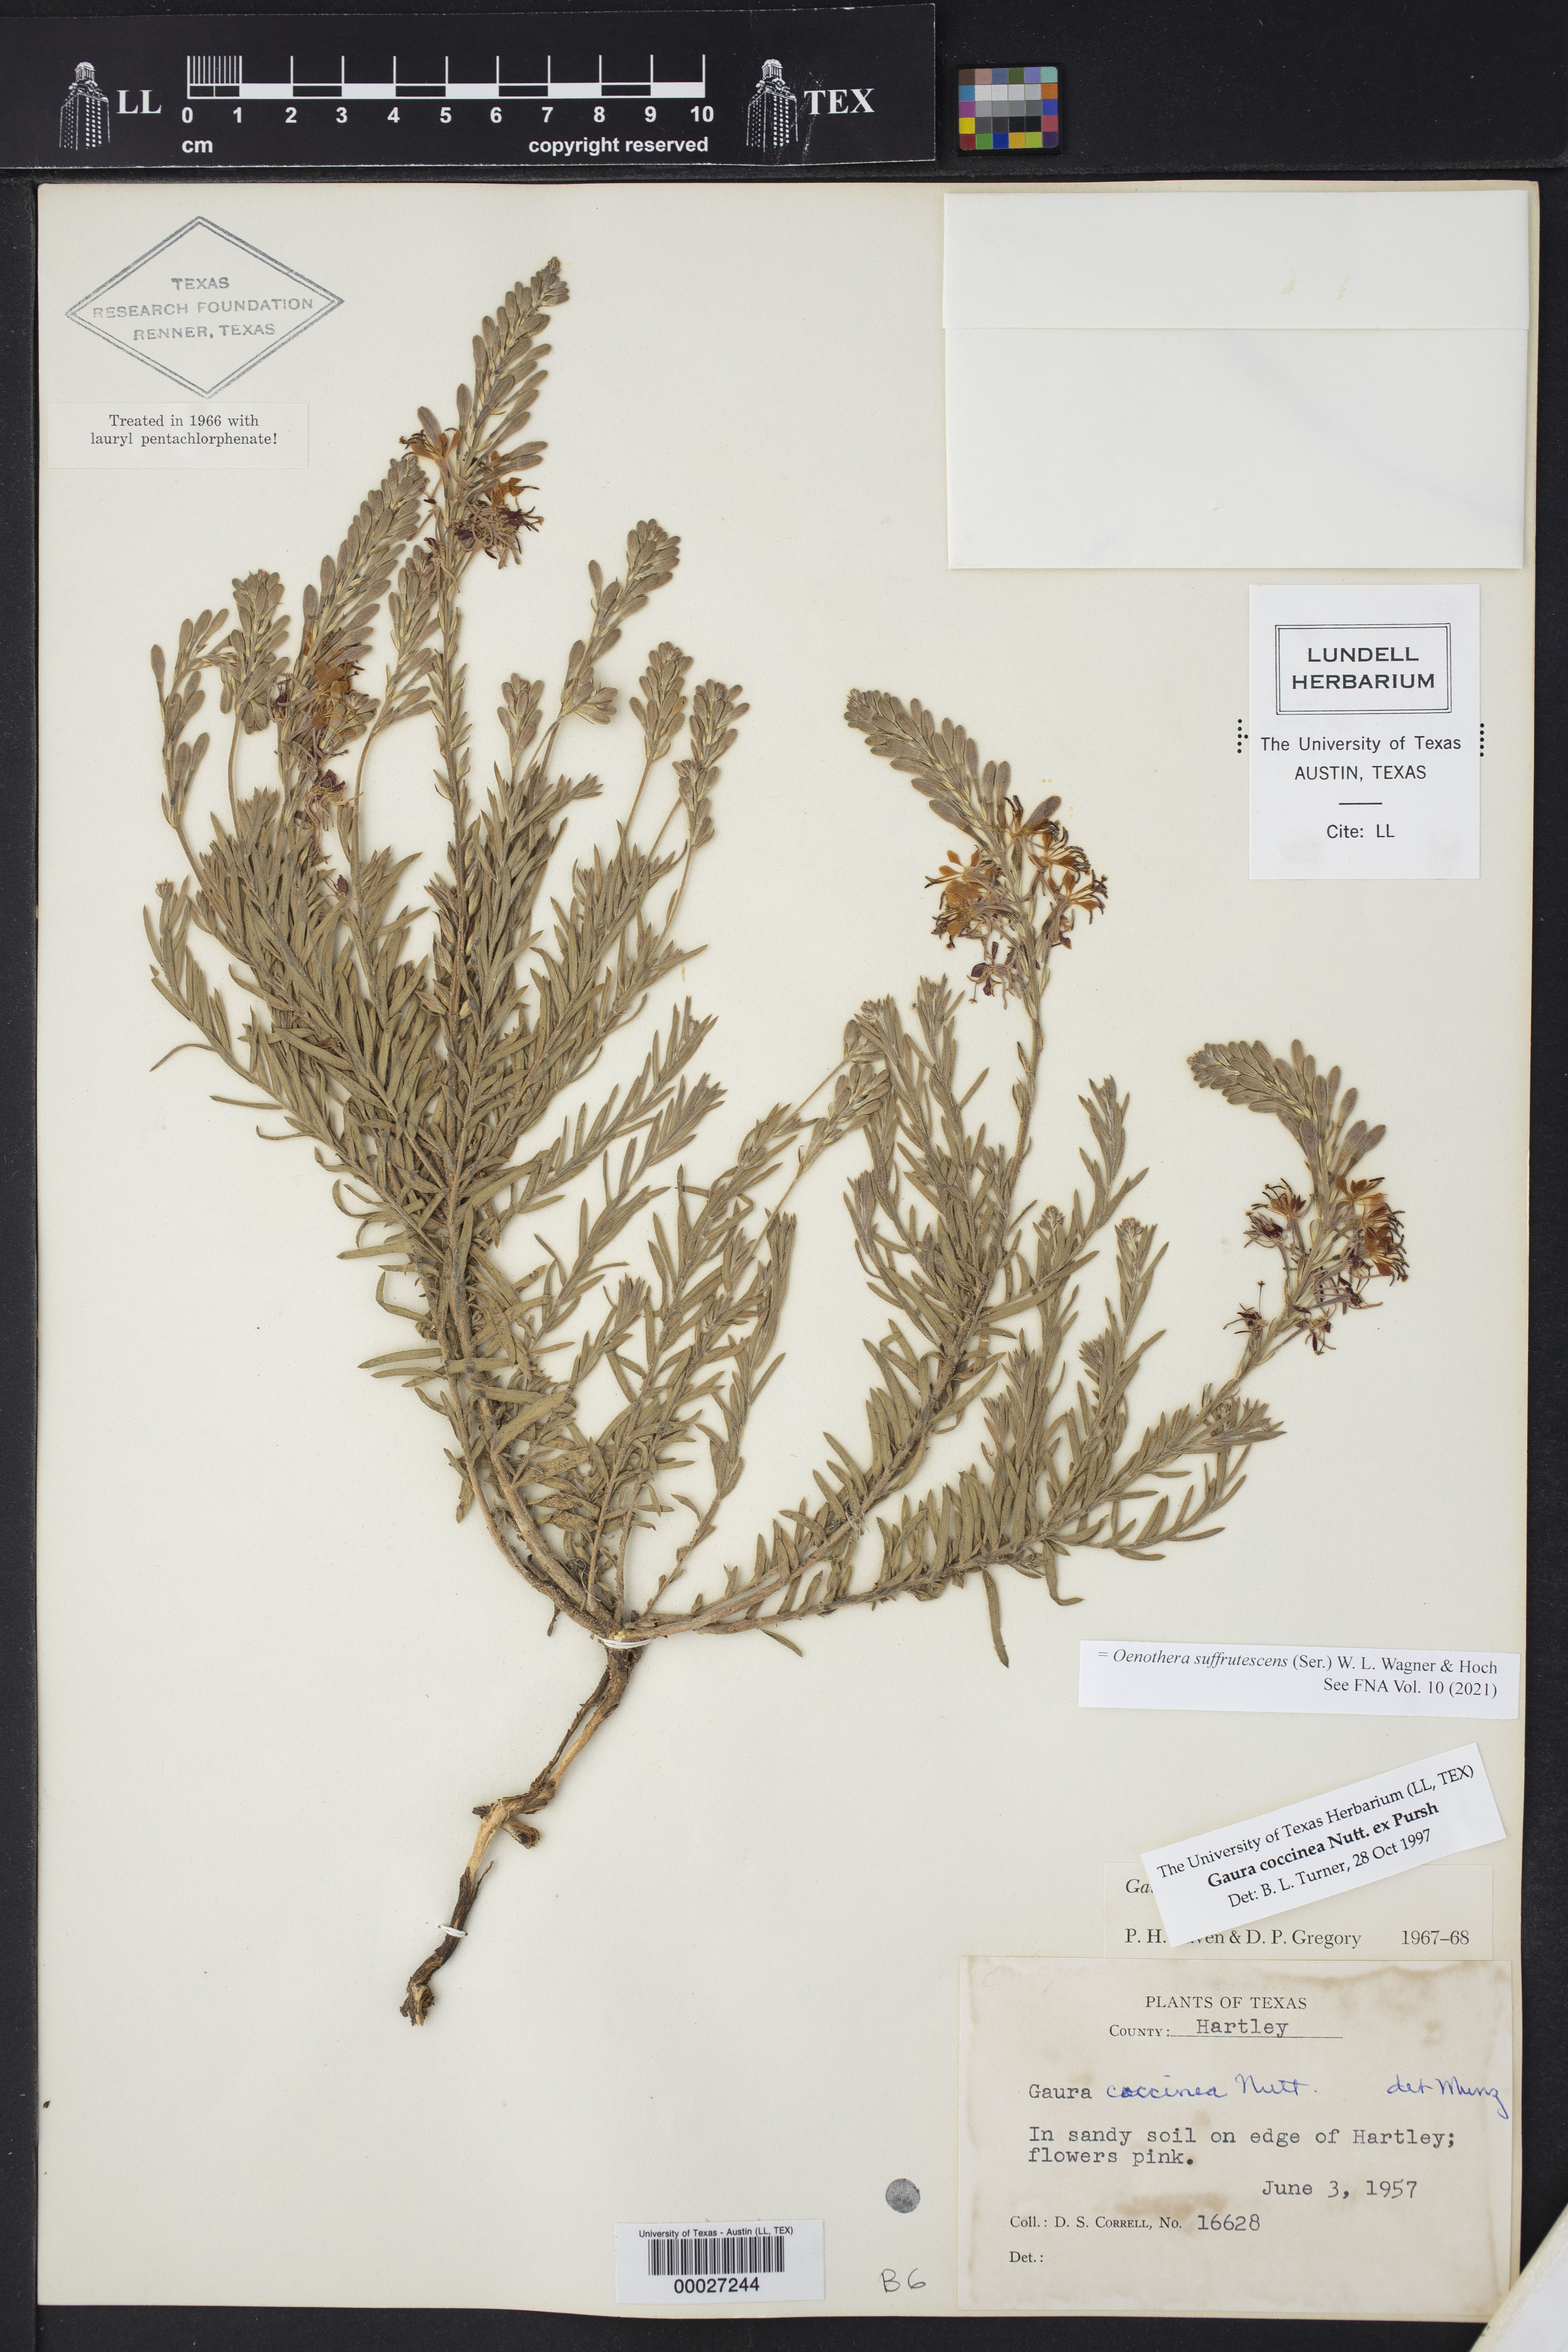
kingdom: Plantae
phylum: Tracheophyta
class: Magnoliopsida
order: Myrtales
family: Onagraceae
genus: Oenothera
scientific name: Oenothera suffrutescens
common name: Scarlet beeblossom
